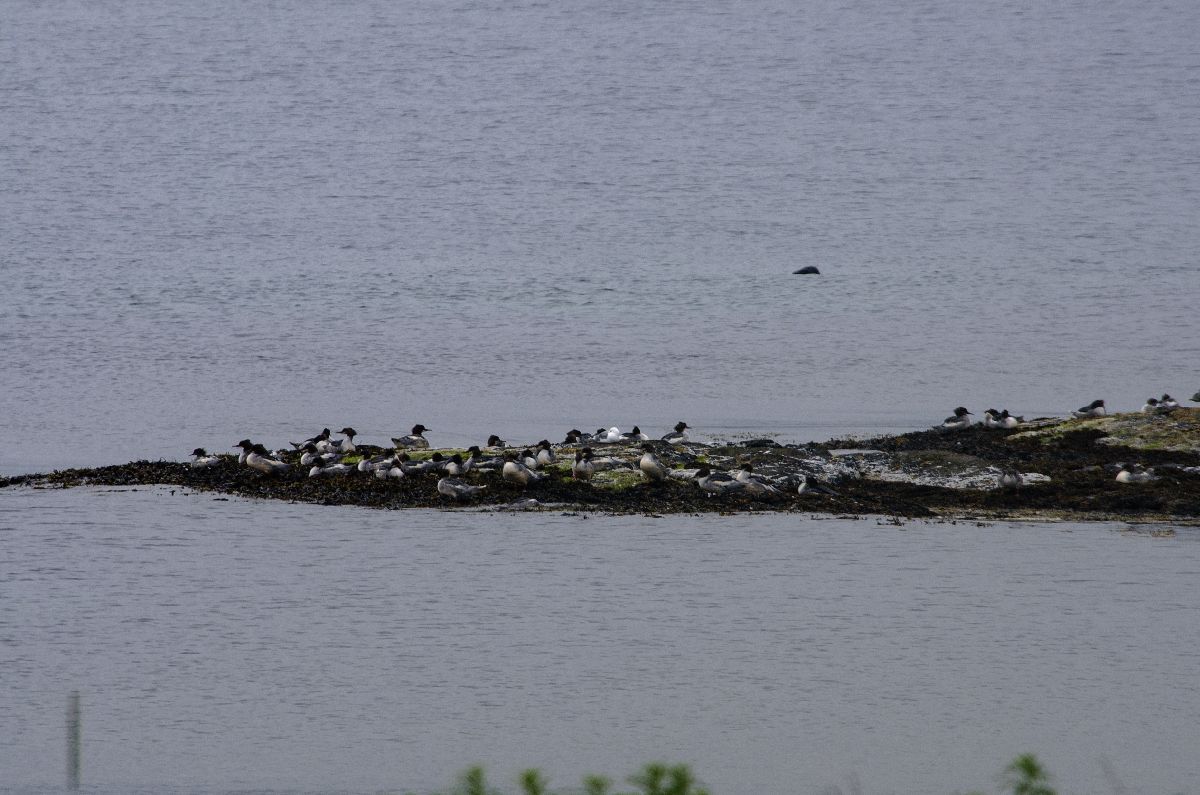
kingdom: Animalia
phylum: Chordata
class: Aves
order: Anseriformes
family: Anatidae
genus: Mergus
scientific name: Mergus merganser
